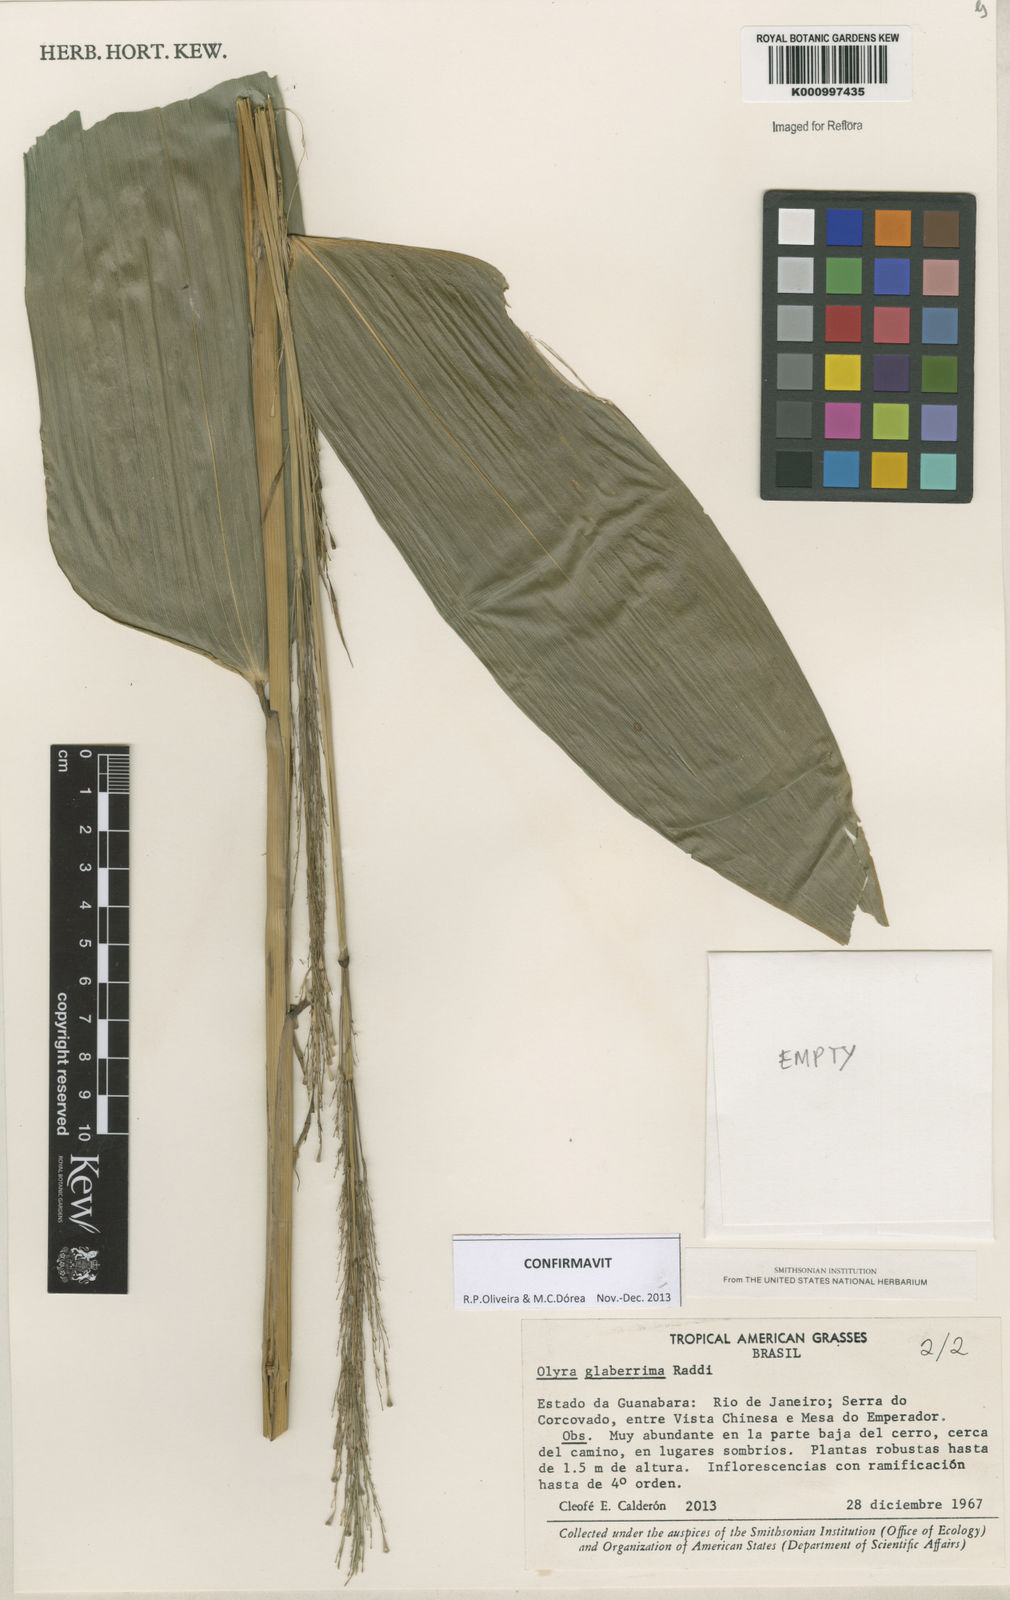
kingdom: Plantae
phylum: Tracheophyta
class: Liliopsida
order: Poales
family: Poaceae
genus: Olyra
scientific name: Olyra glaberrima
